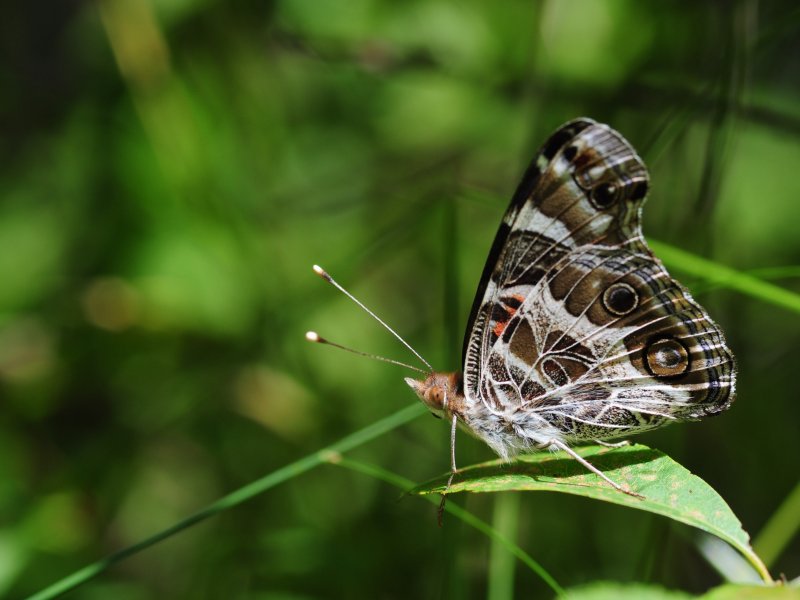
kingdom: Animalia
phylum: Arthropoda
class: Insecta
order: Lepidoptera
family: Nymphalidae
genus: Vanessa
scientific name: Vanessa virginiensis
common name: American Lady
